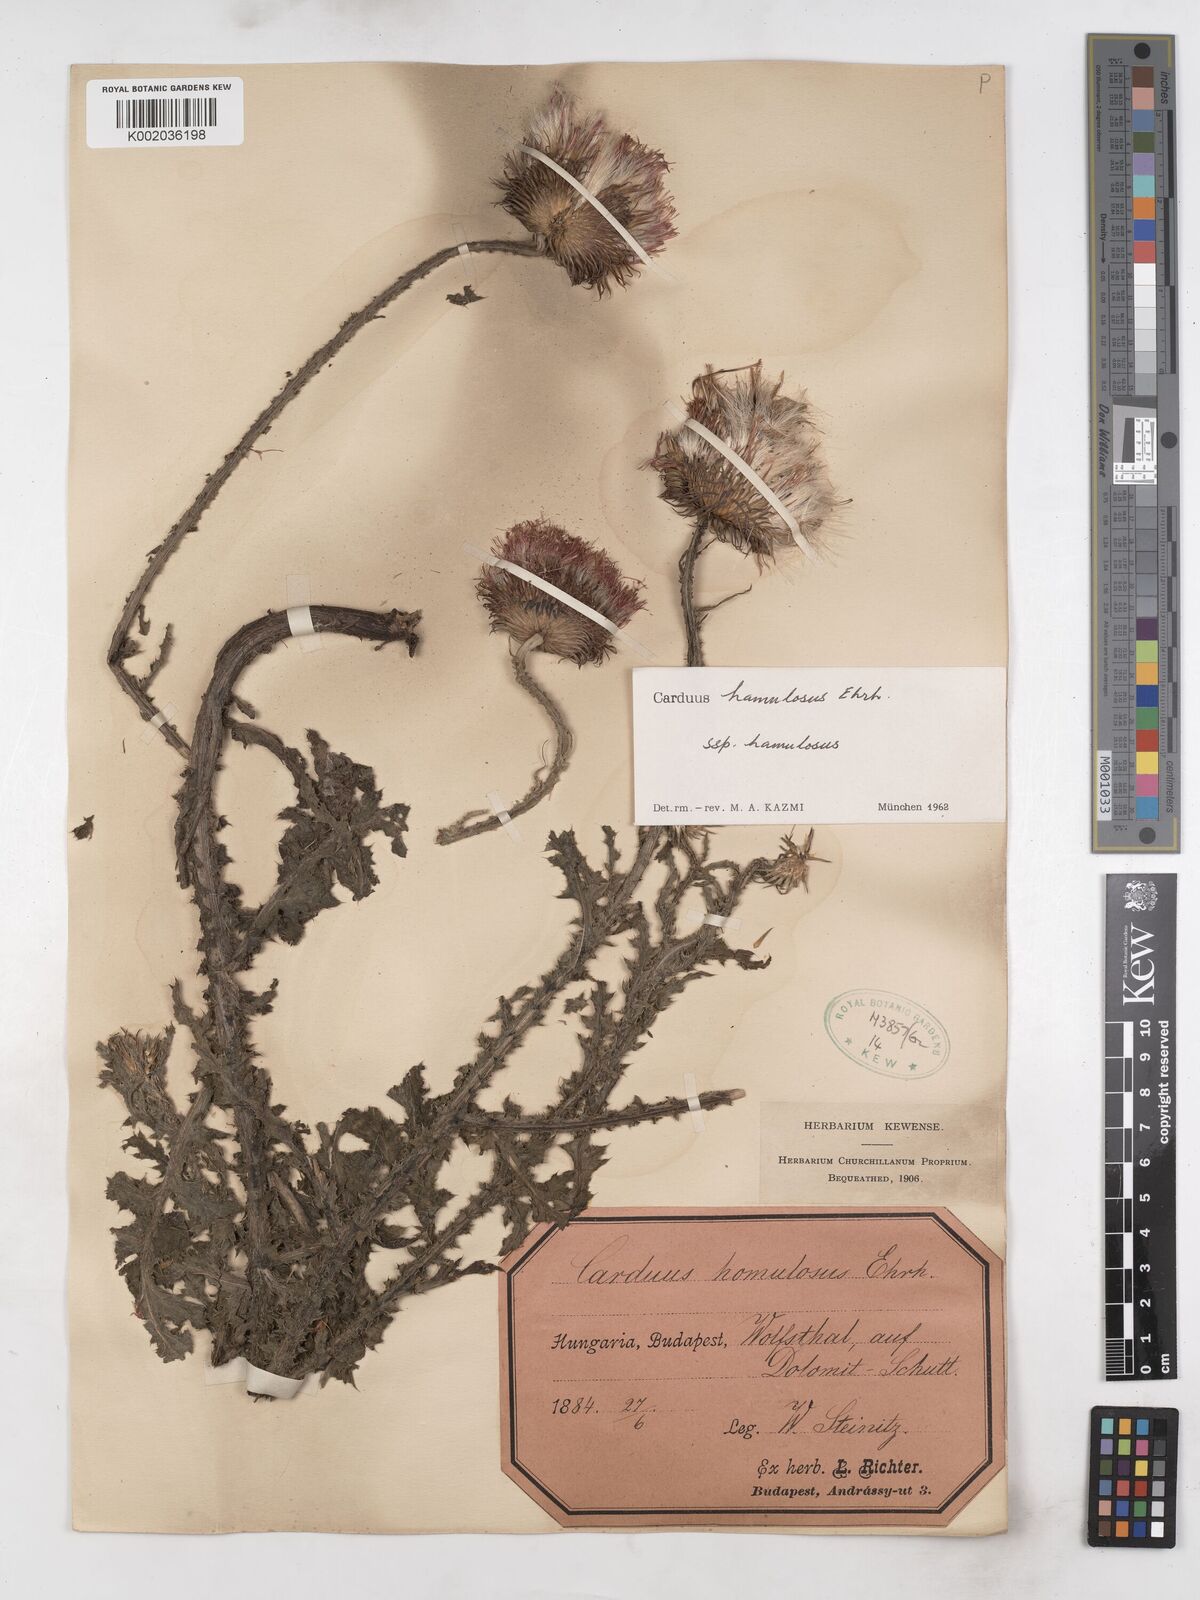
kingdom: Plantae
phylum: Tracheophyta
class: Magnoliopsida
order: Asterales
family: Asteraceae
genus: Carduus
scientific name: Carduus hamulosus
